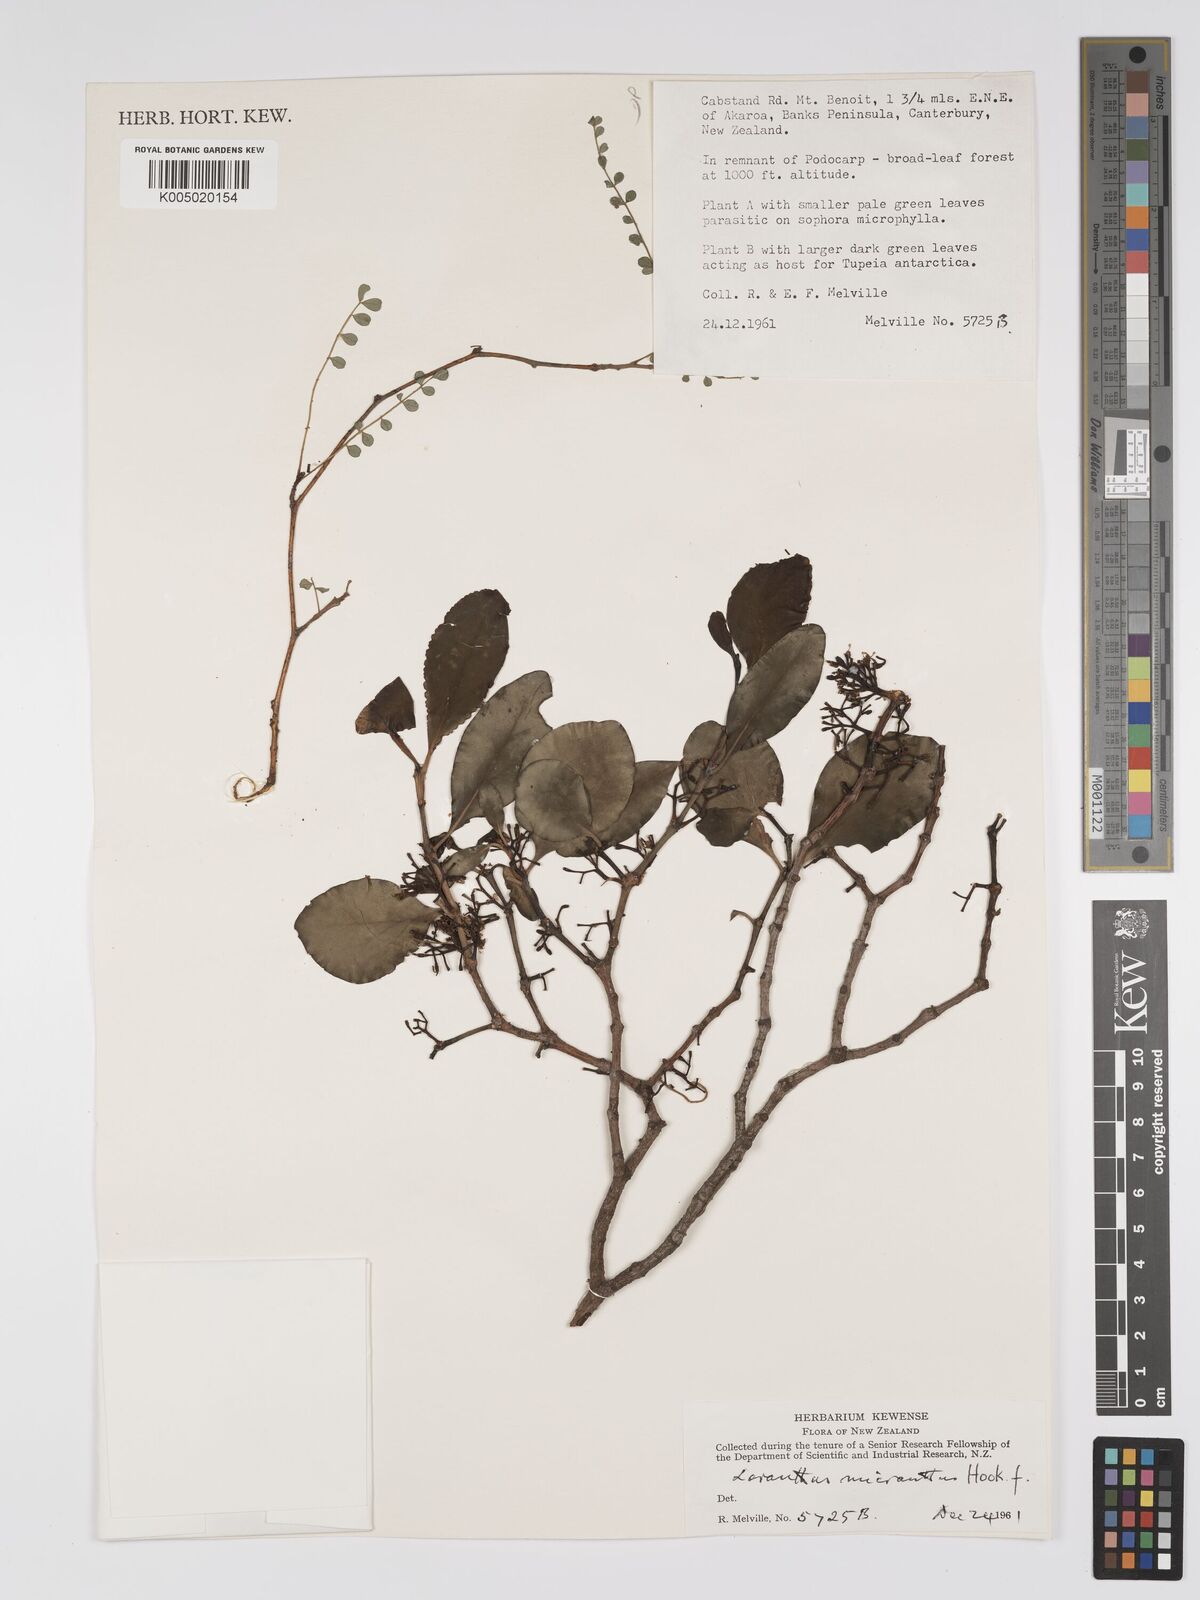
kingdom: Plantae
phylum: Tracheophyta
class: Magnoliopsida
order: Santalales
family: Loranthaceae
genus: Ileostylus
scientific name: Ileostylus micranthus
